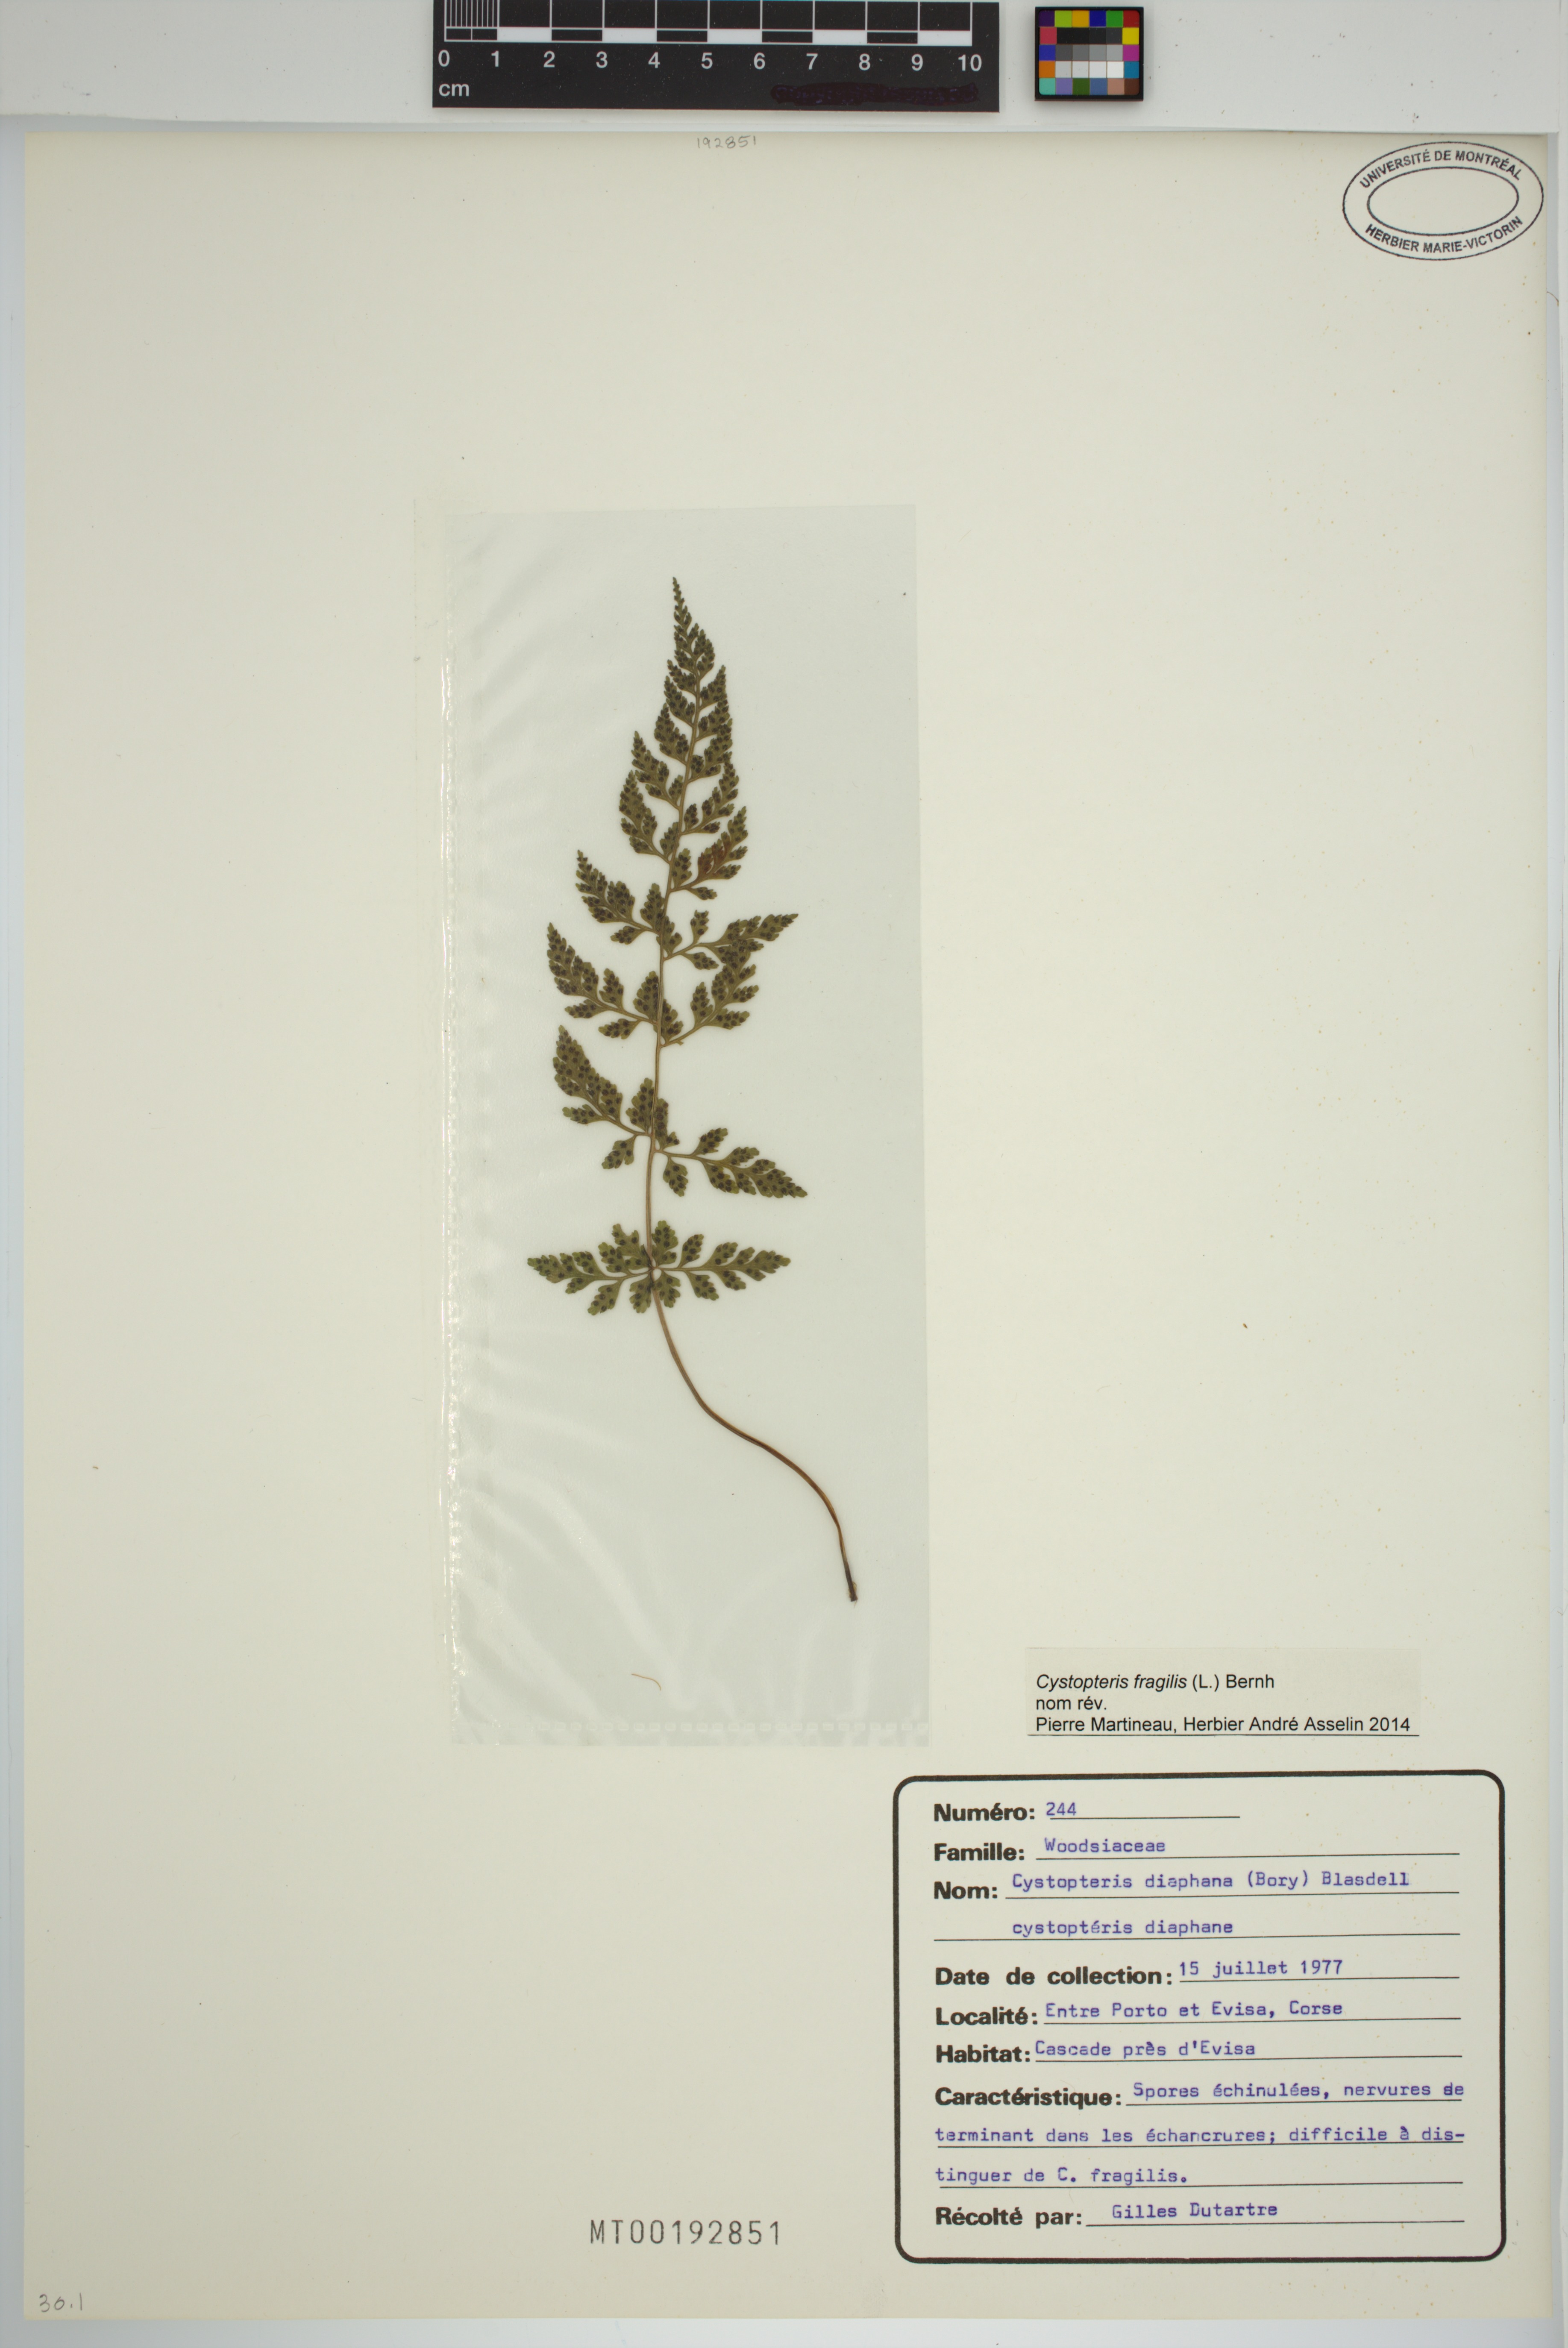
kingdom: Plantae
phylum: Tracheophyta
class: Polypodiopsida
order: Polypodiales
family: Cystopteridaceae
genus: Cystopteris
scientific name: Cystopteris fragilis
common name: Brittle bladder fern
